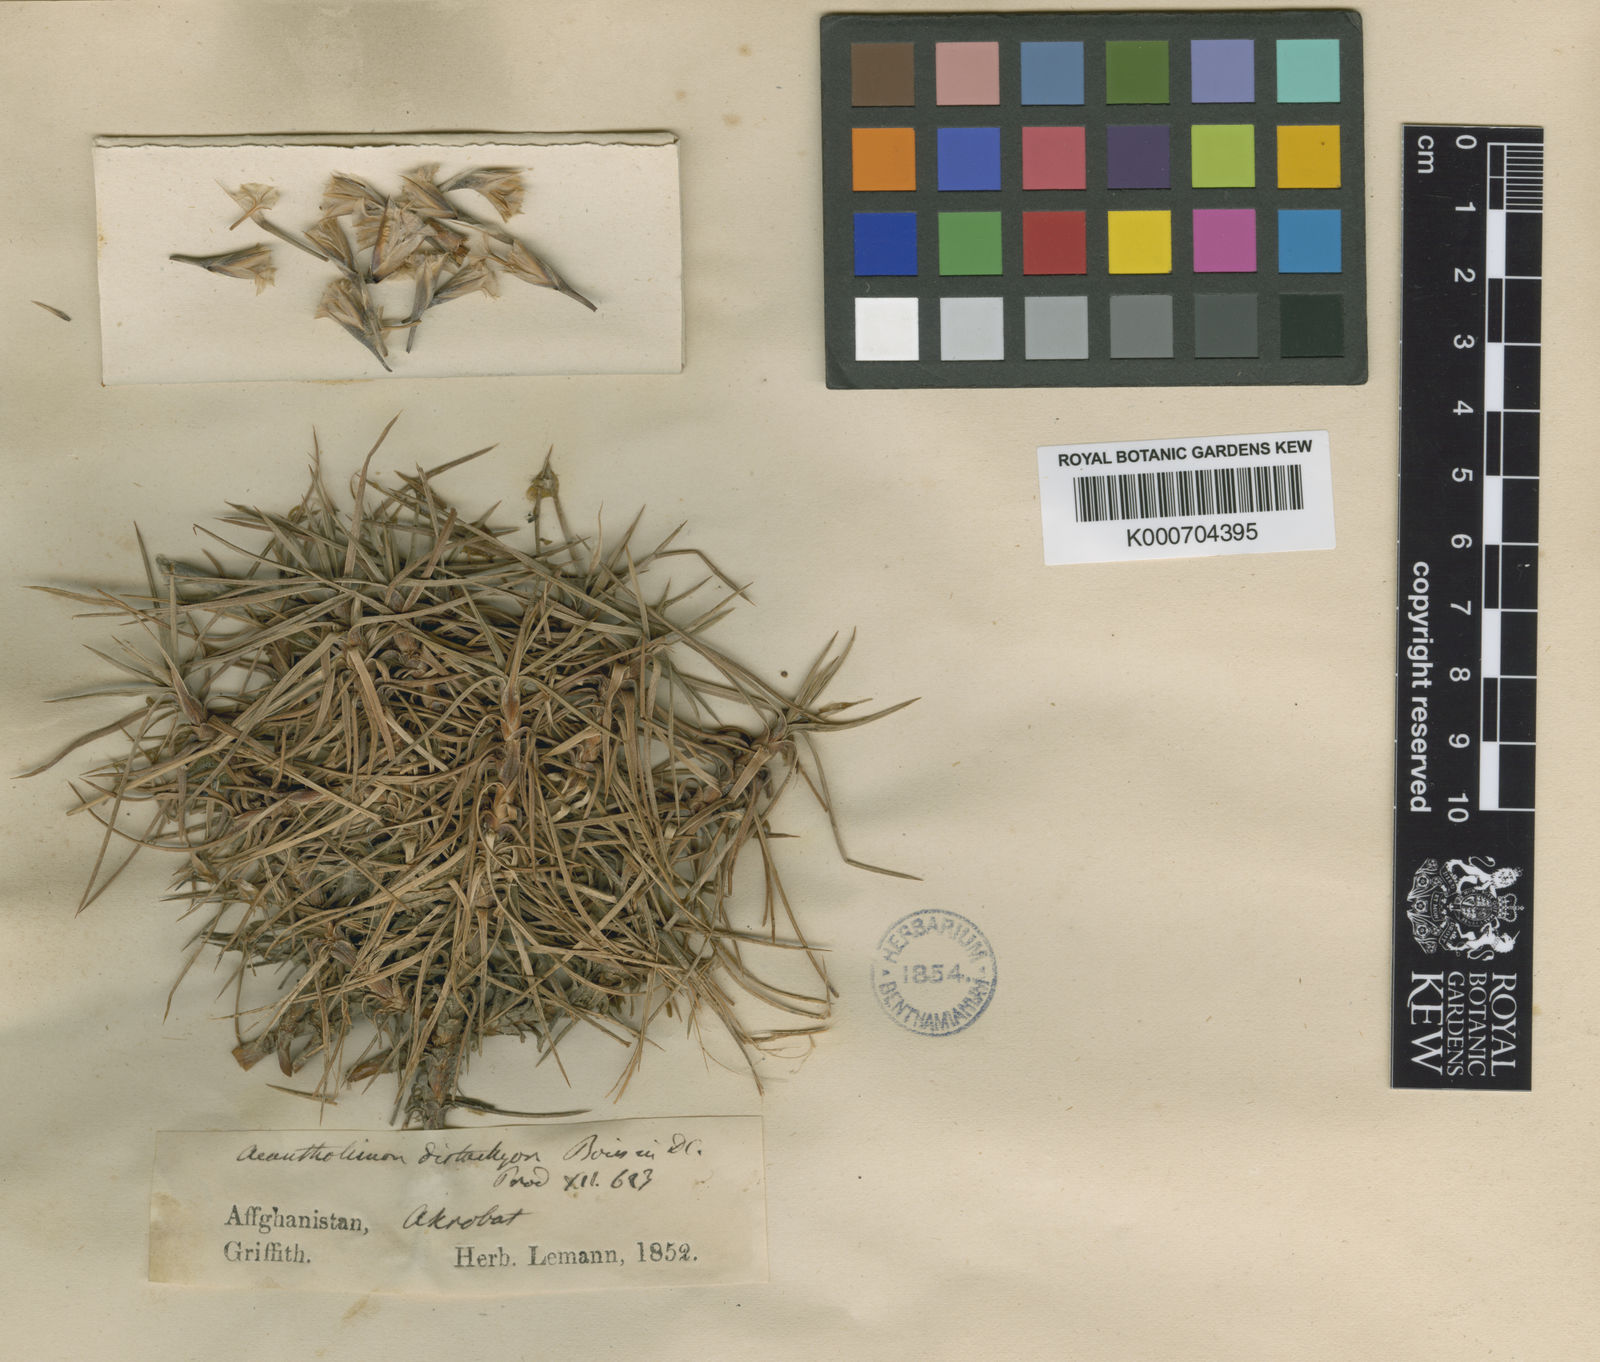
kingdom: Plantae
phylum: Tracheophyta
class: Magnoliopsida
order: Caryophyllales
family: Plumbaginaceae
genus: Acantholimon
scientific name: Acantholimon distachyum
